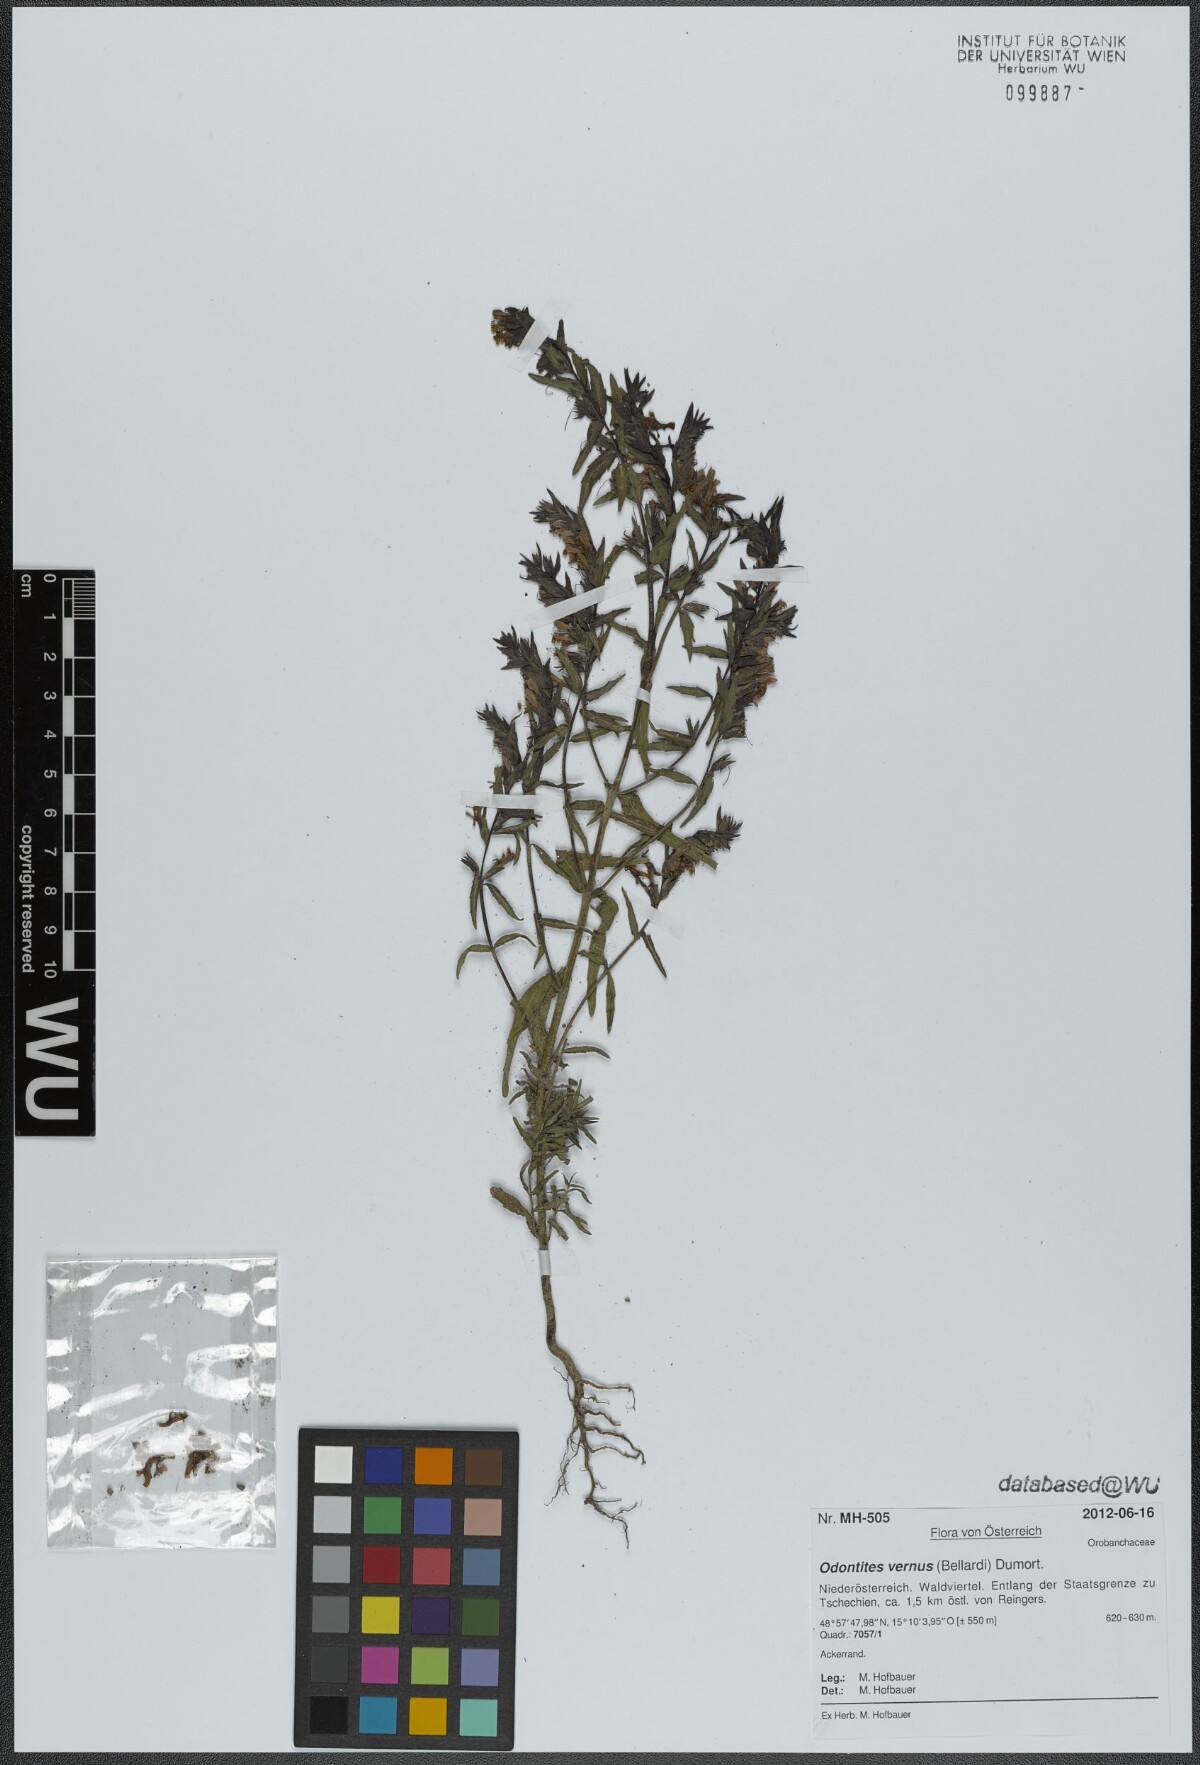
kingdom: Plantae
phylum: Tracheophyta
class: Magnoliopsida
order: Lamiales
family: Orobanchaceae
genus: Odontites
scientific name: Odontites vernus
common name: Red bartsia
